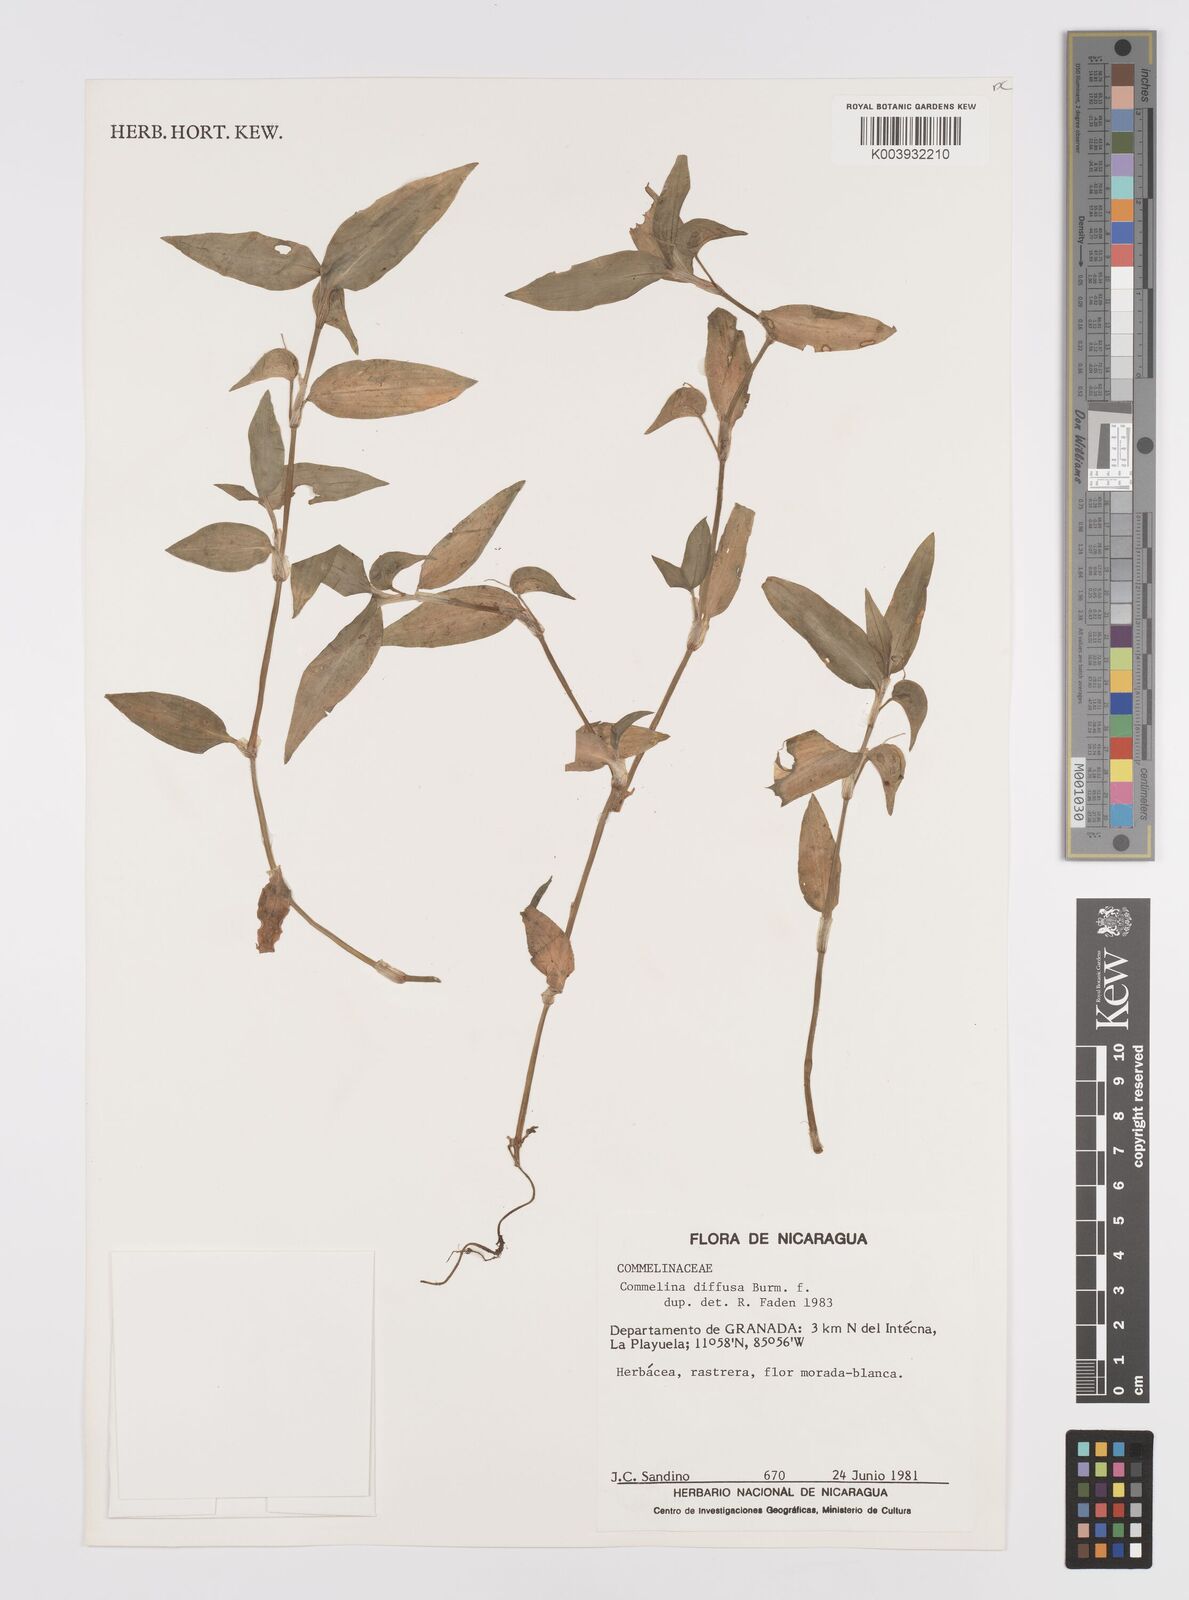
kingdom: Plantae
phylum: Tracheophyta
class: Liliopsida
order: Commelinales
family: Commelinaceae
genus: Commelina
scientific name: Commelina diffusa
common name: Climbing dayflower
